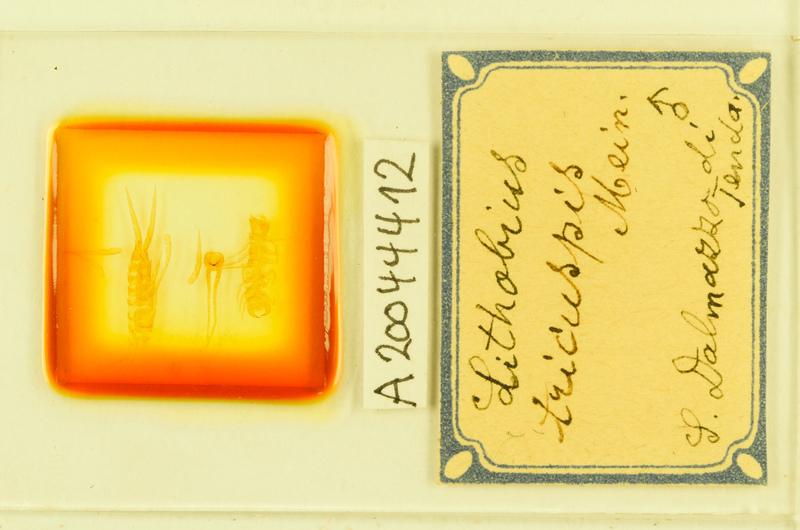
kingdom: Animalia
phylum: Arthropoda
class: Chilopoda
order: Lithobiomorpha
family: Lithobiidae
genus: Lithobius
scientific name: Lithobius tricuspis
